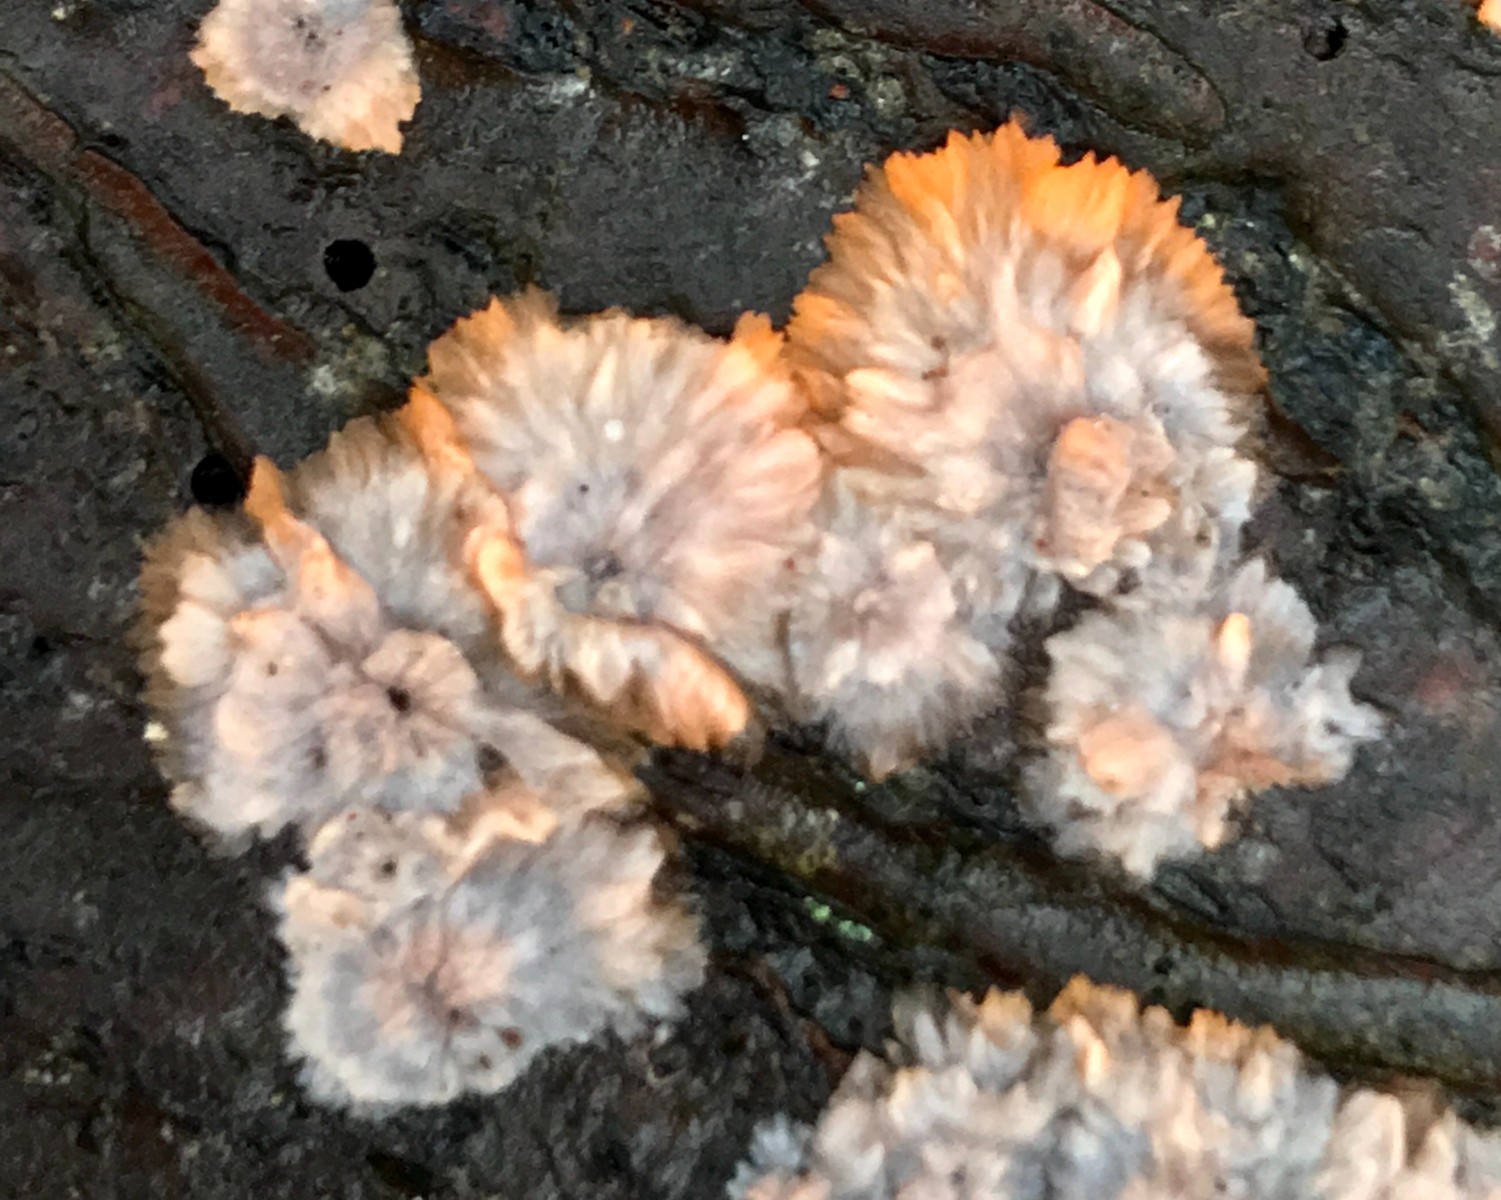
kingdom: Fungi
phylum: Basidiomycota
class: Agaricomycetes
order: Polyporales
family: Meruliaceae
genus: Phlebia
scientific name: Phlebia radiata
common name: stråle-åresvamp
